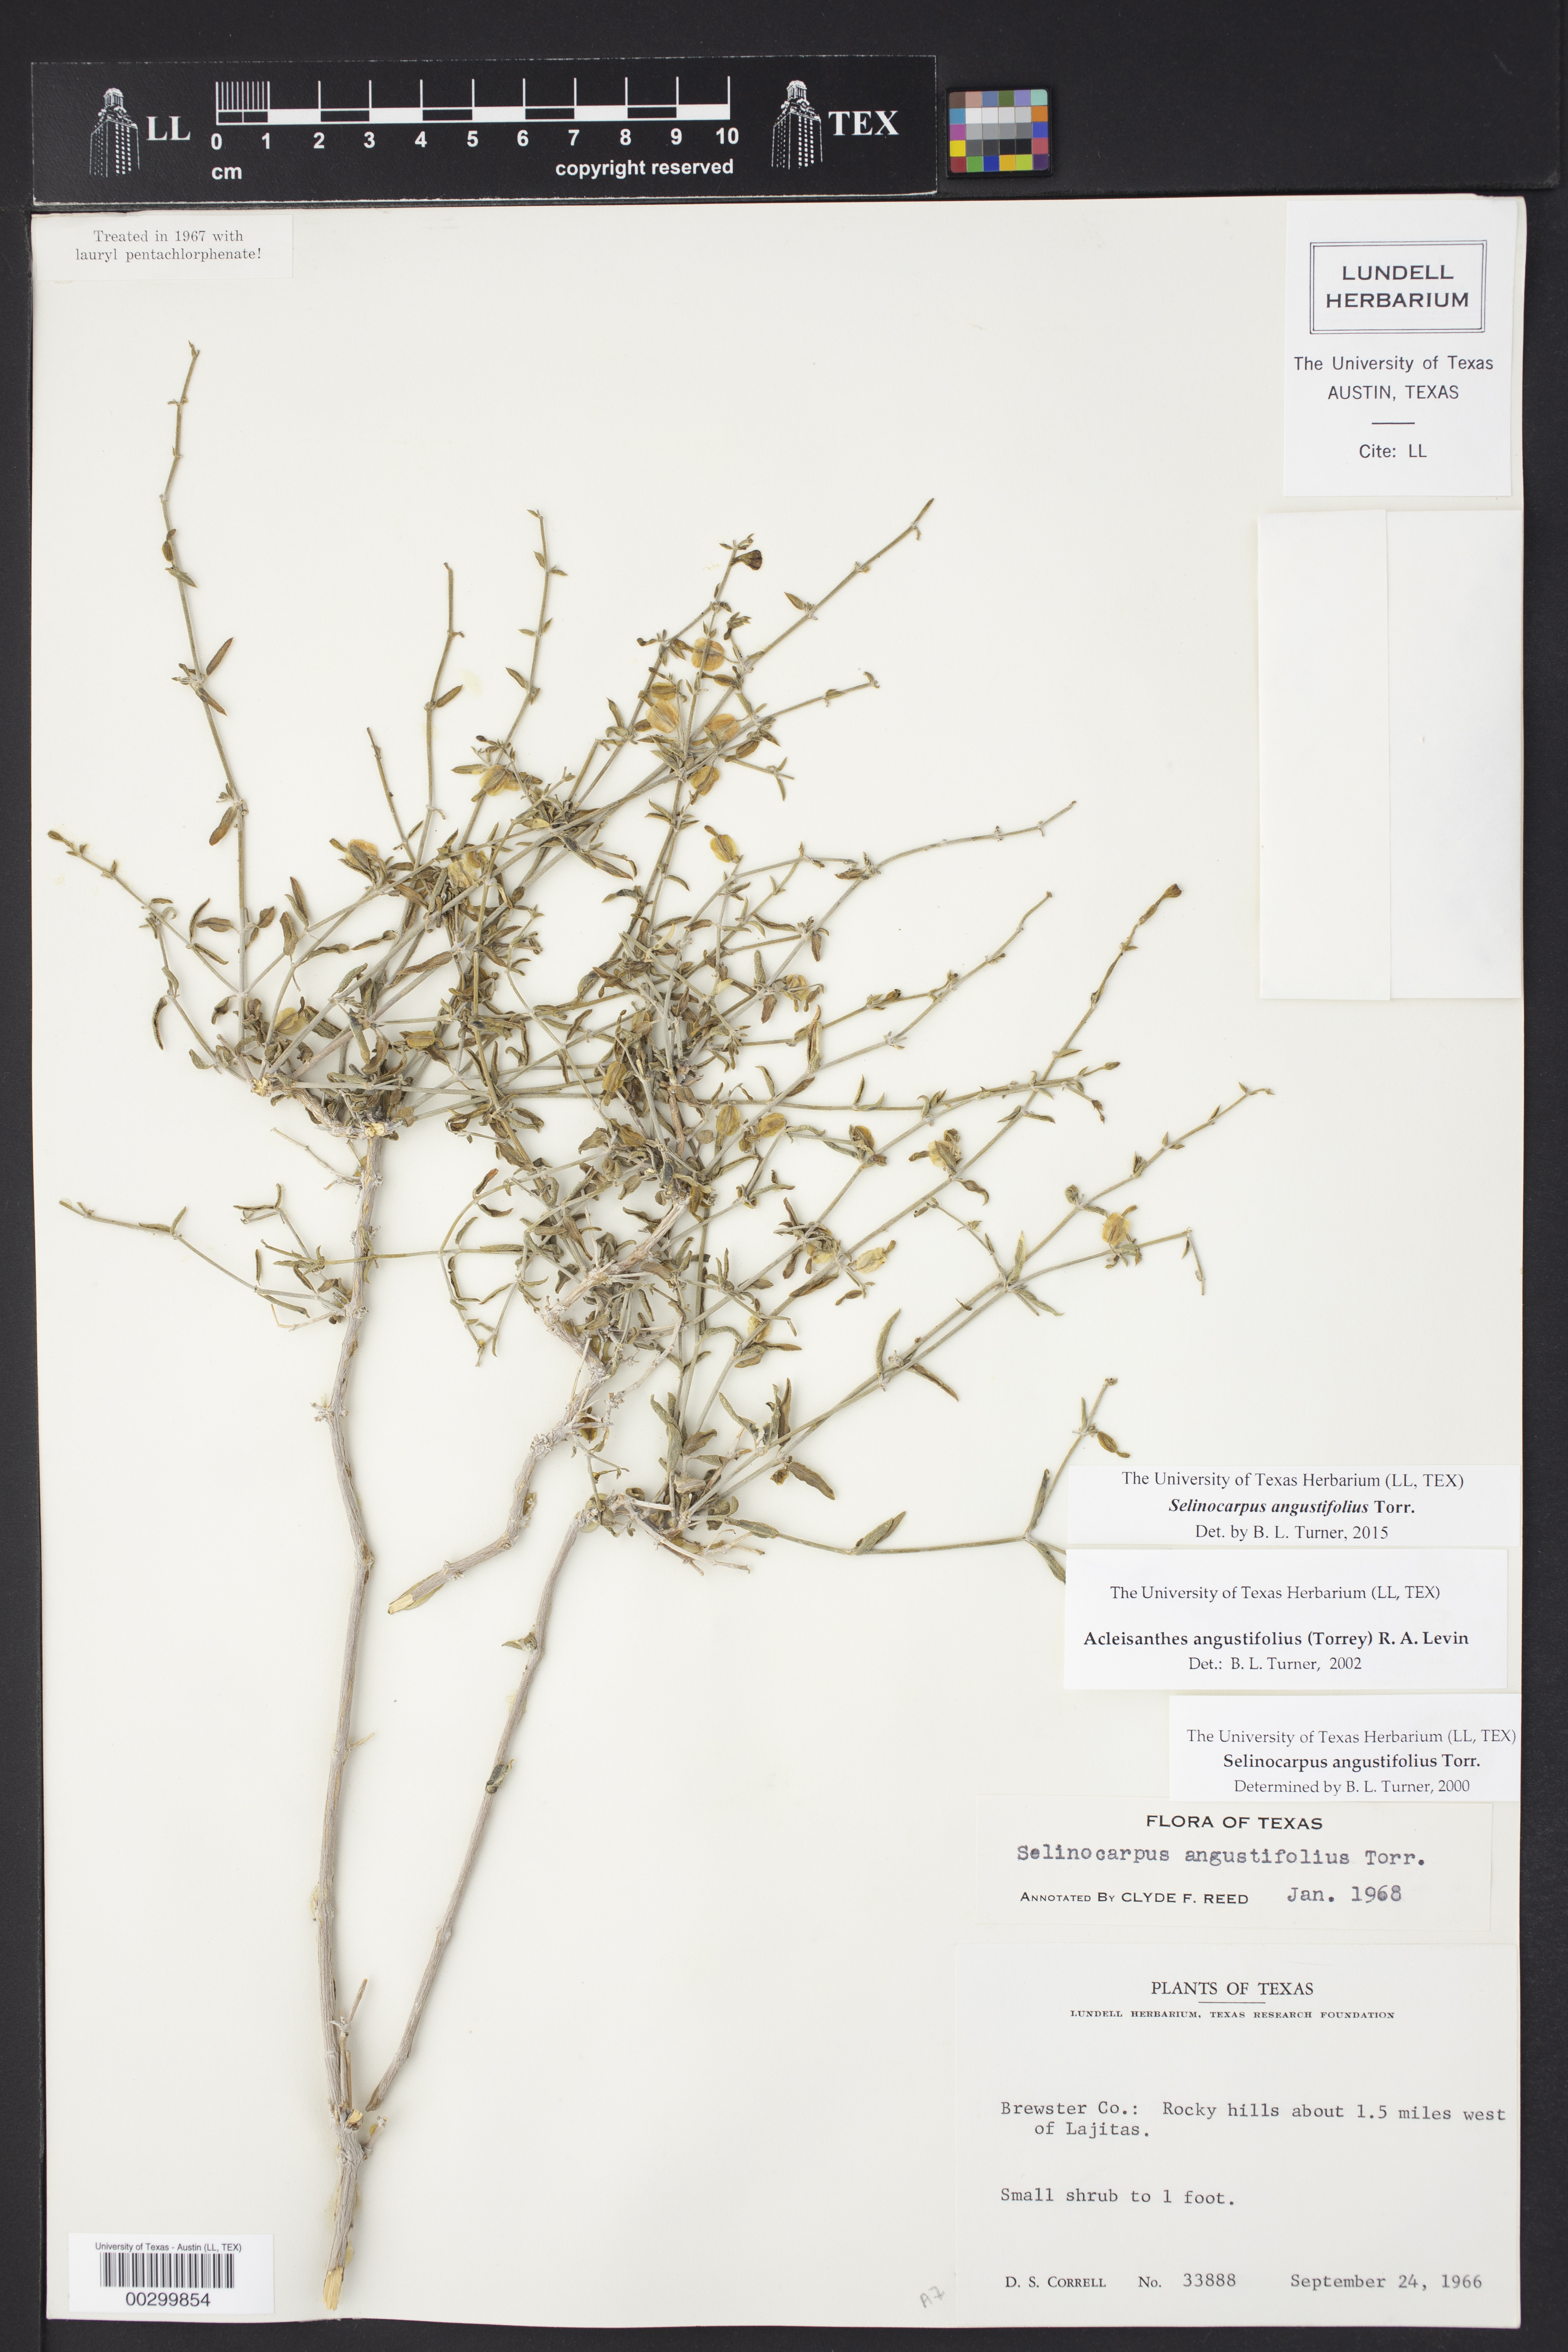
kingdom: Plantae
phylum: Tracheophyta
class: Magnoliopsida
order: Caryophyllales
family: Nyctaginaceae
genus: Acleisanthes
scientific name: Acleisanthes angustifolia
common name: Narrowleaf moonpod
